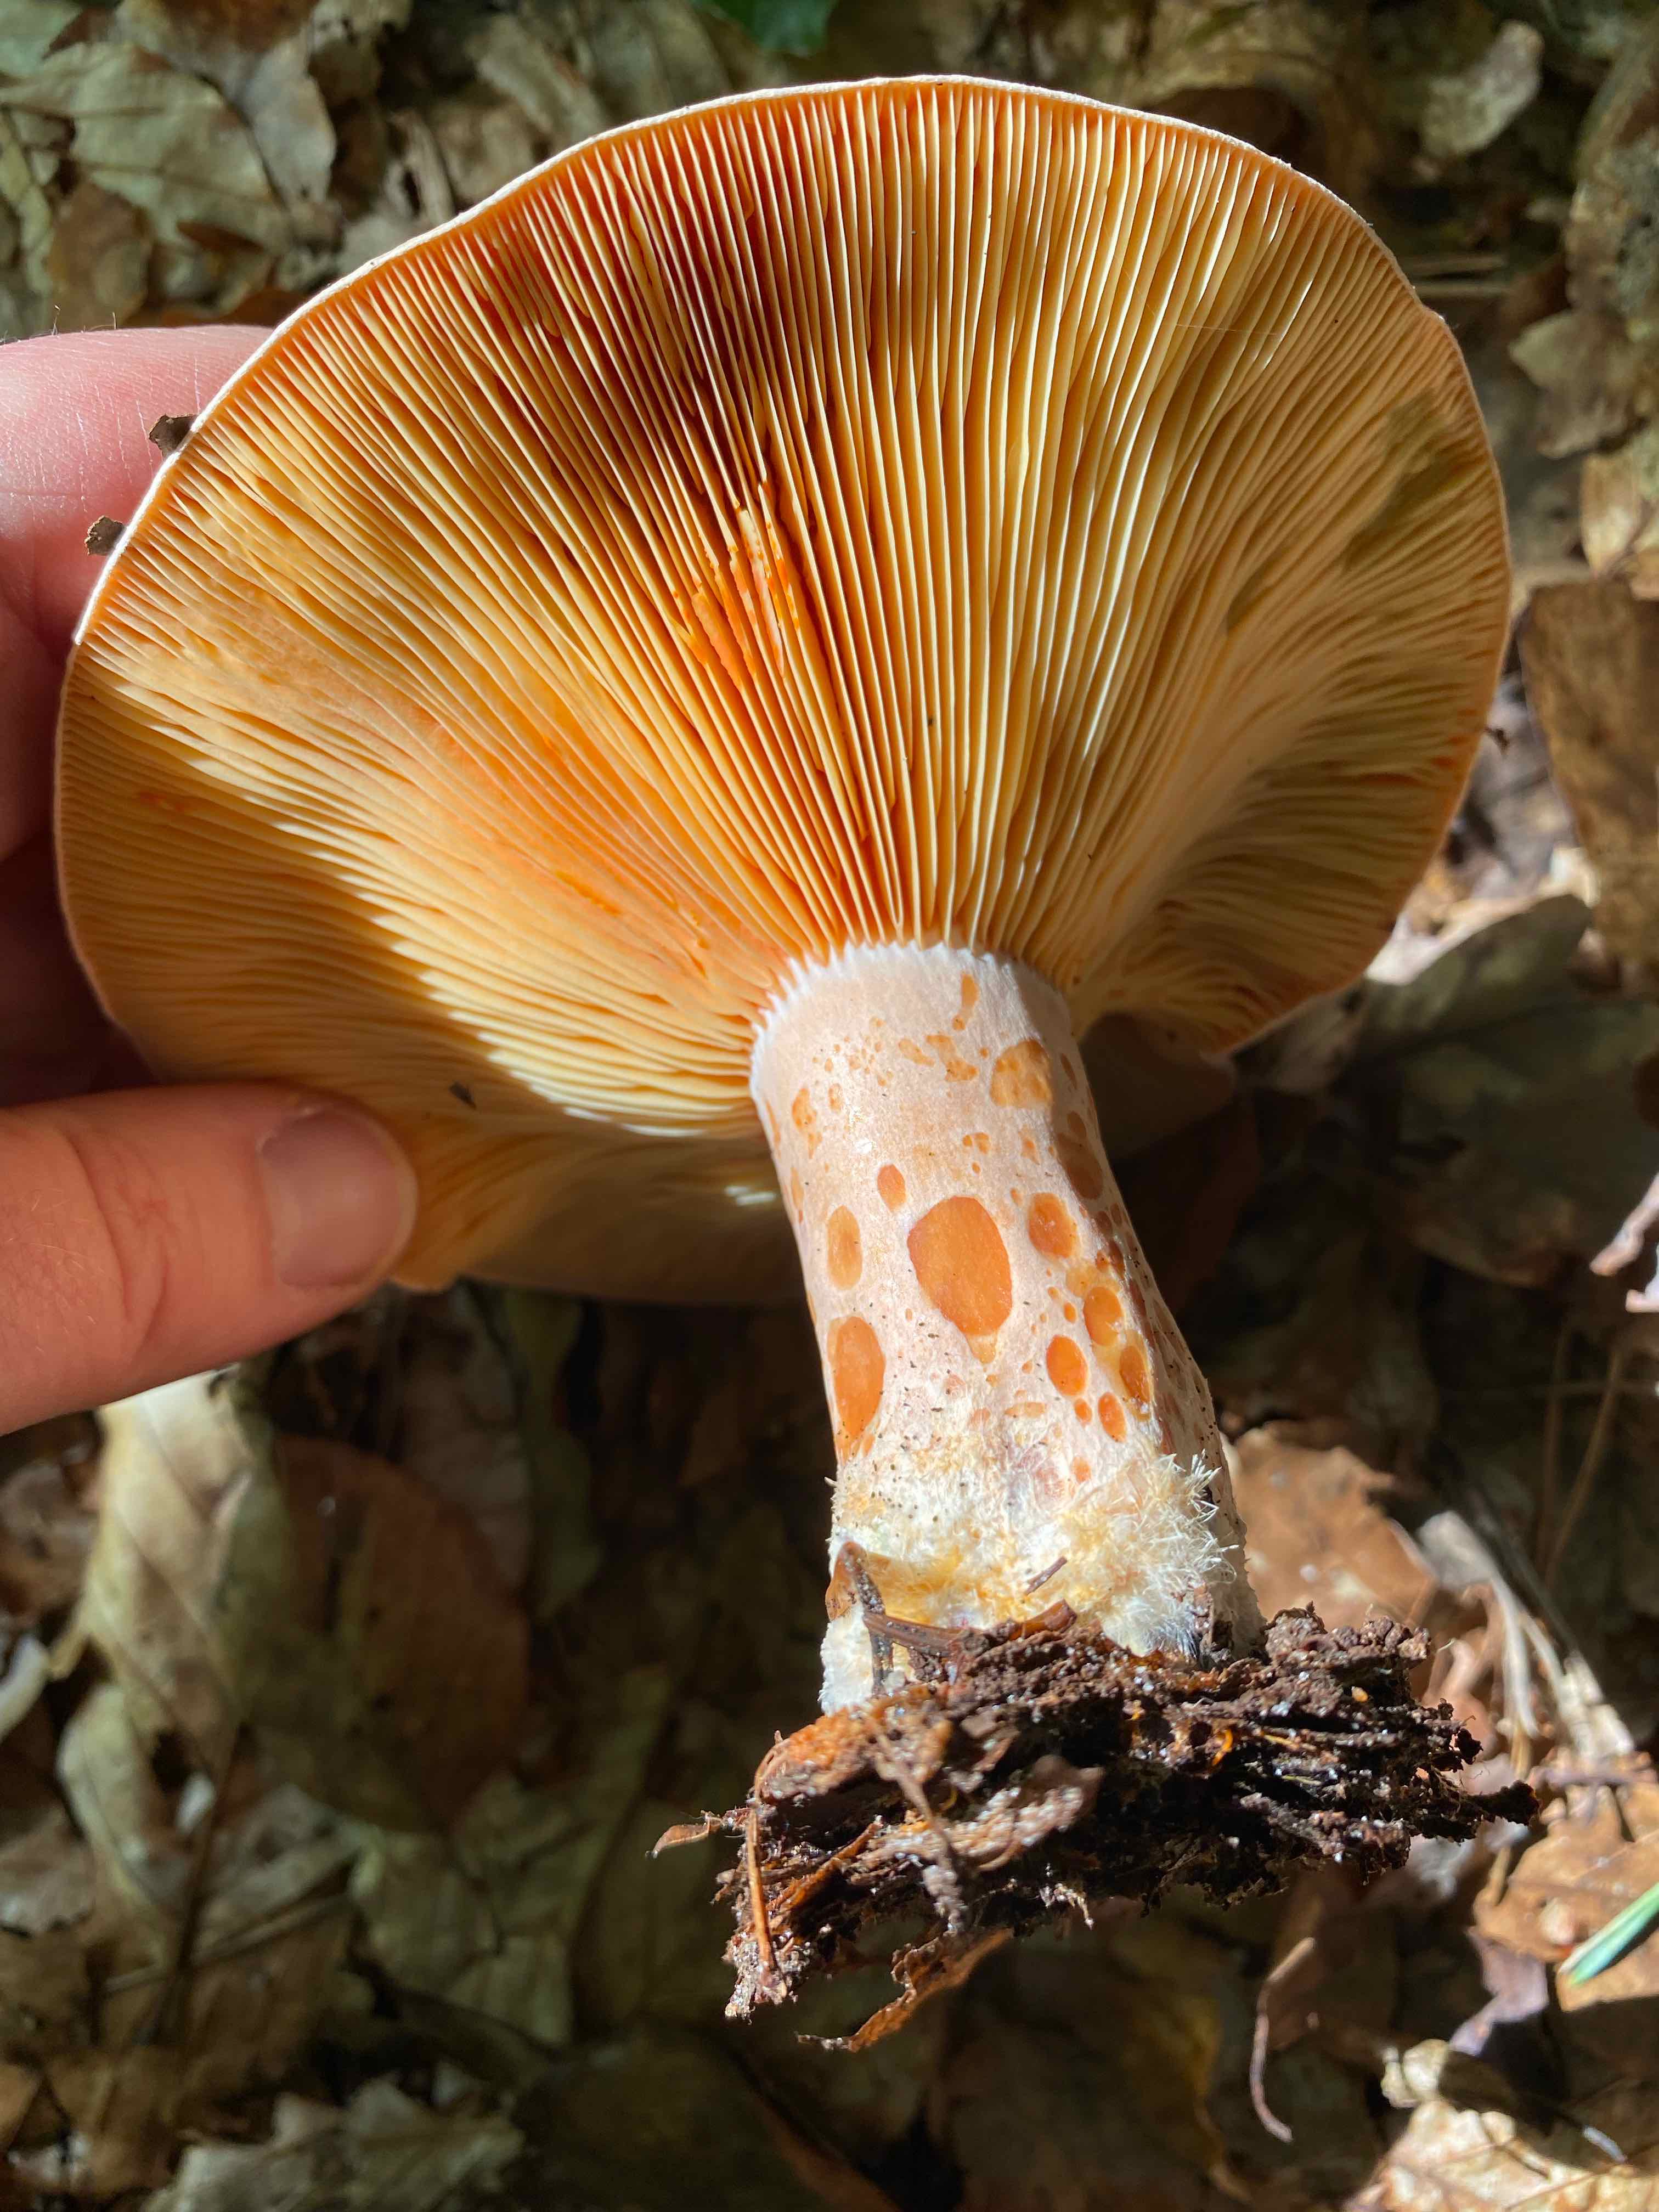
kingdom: Fungi
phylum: Basidiomycota
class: Agaricomycetes
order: Russulales
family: Russulaceae
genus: Lactarius
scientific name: Lactarius deliciosus
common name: velsmagende mælkehat
